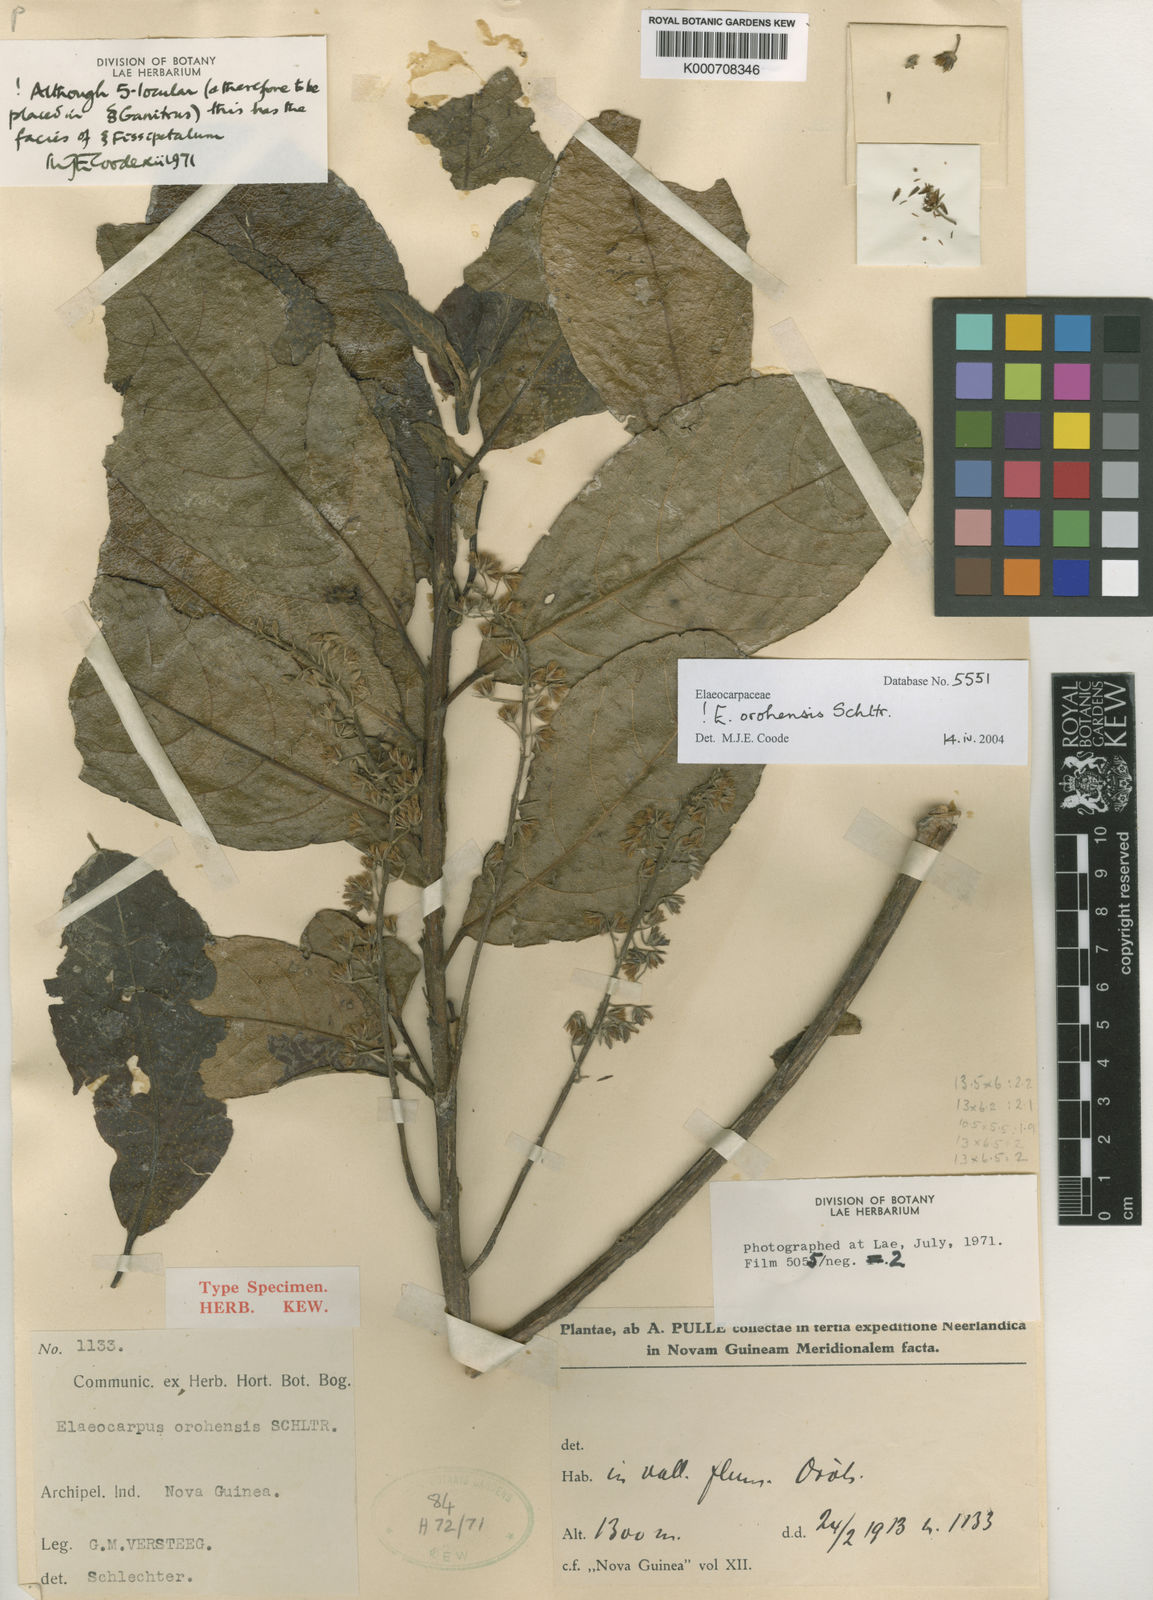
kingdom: Plantae
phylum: Tracheophyta
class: Magnoliopsida
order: Oxalidales
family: Elaeocarpaceae
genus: Elaeocarpus
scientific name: Elaeocarpus orohensis
